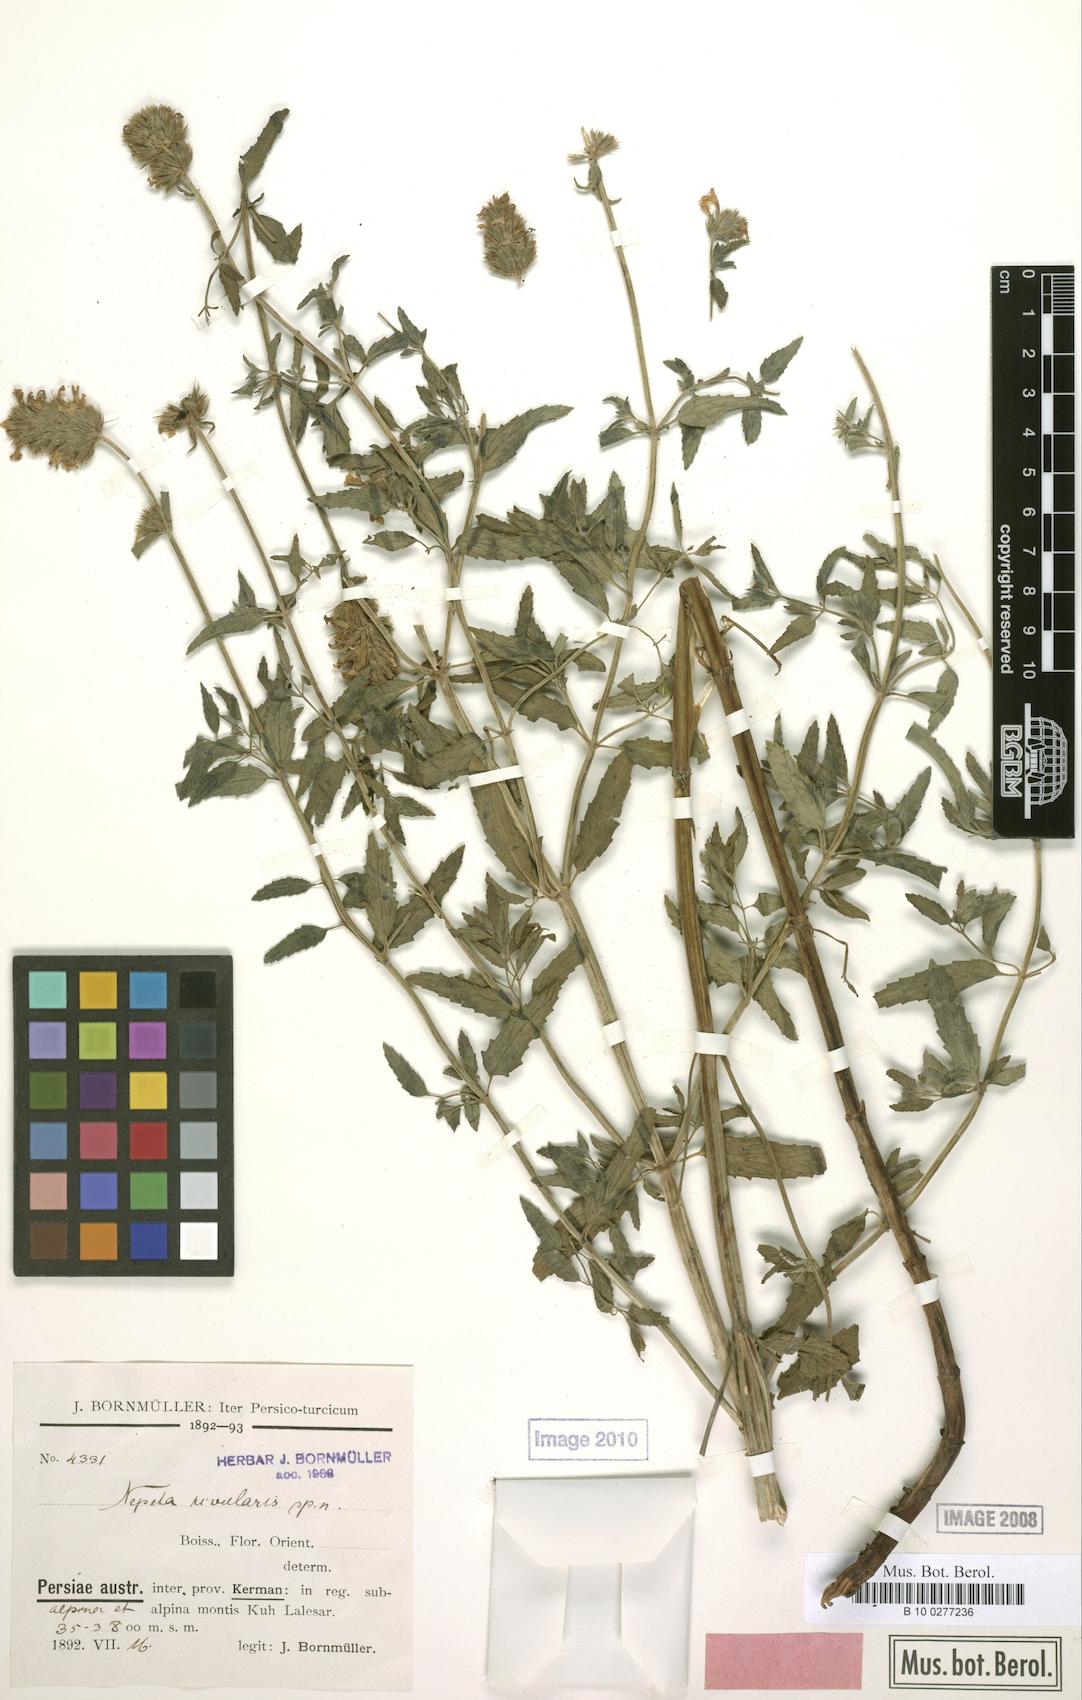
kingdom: Plantae
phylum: Tracheophyta
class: Magnoliopsida
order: Lamiales
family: Lamiaceae
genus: Nepeta
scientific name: Nepeta rivularis
